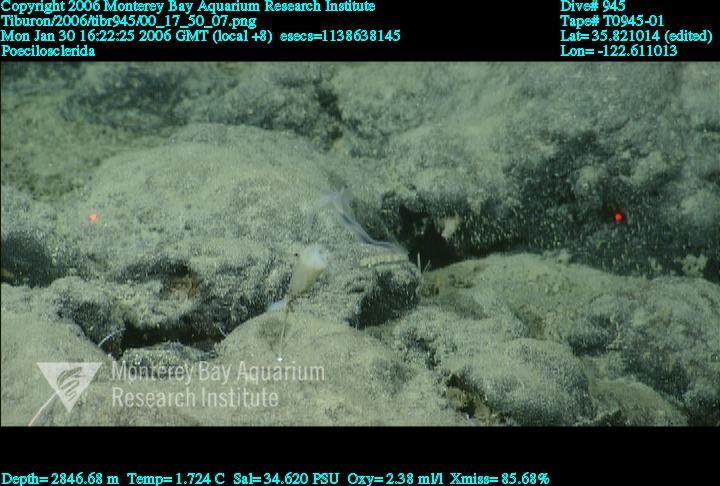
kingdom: Animalia
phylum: Porifera
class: Demospongiae
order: Poecilosclerida
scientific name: Poecilosclerida
